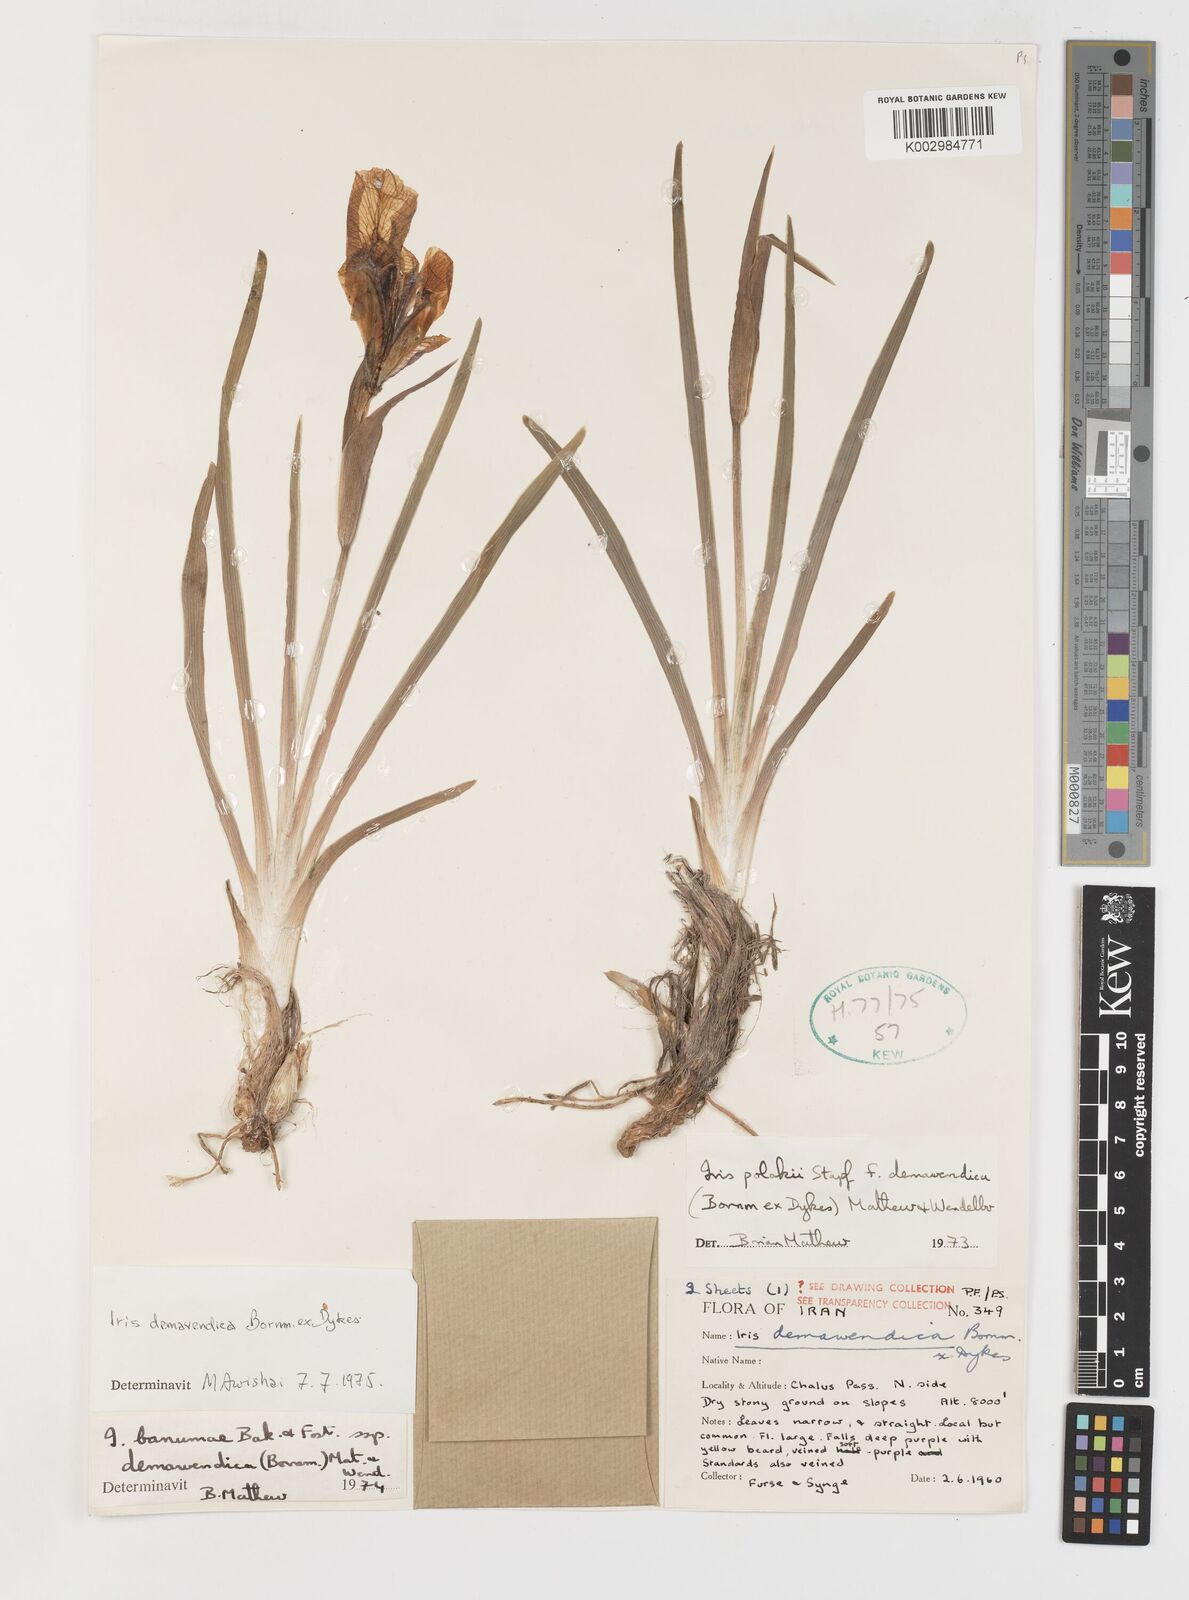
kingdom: Plantae
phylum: Tracheophyta
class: Liliopsida
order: Asparagales
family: Iridaceae
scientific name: Iridaceae
